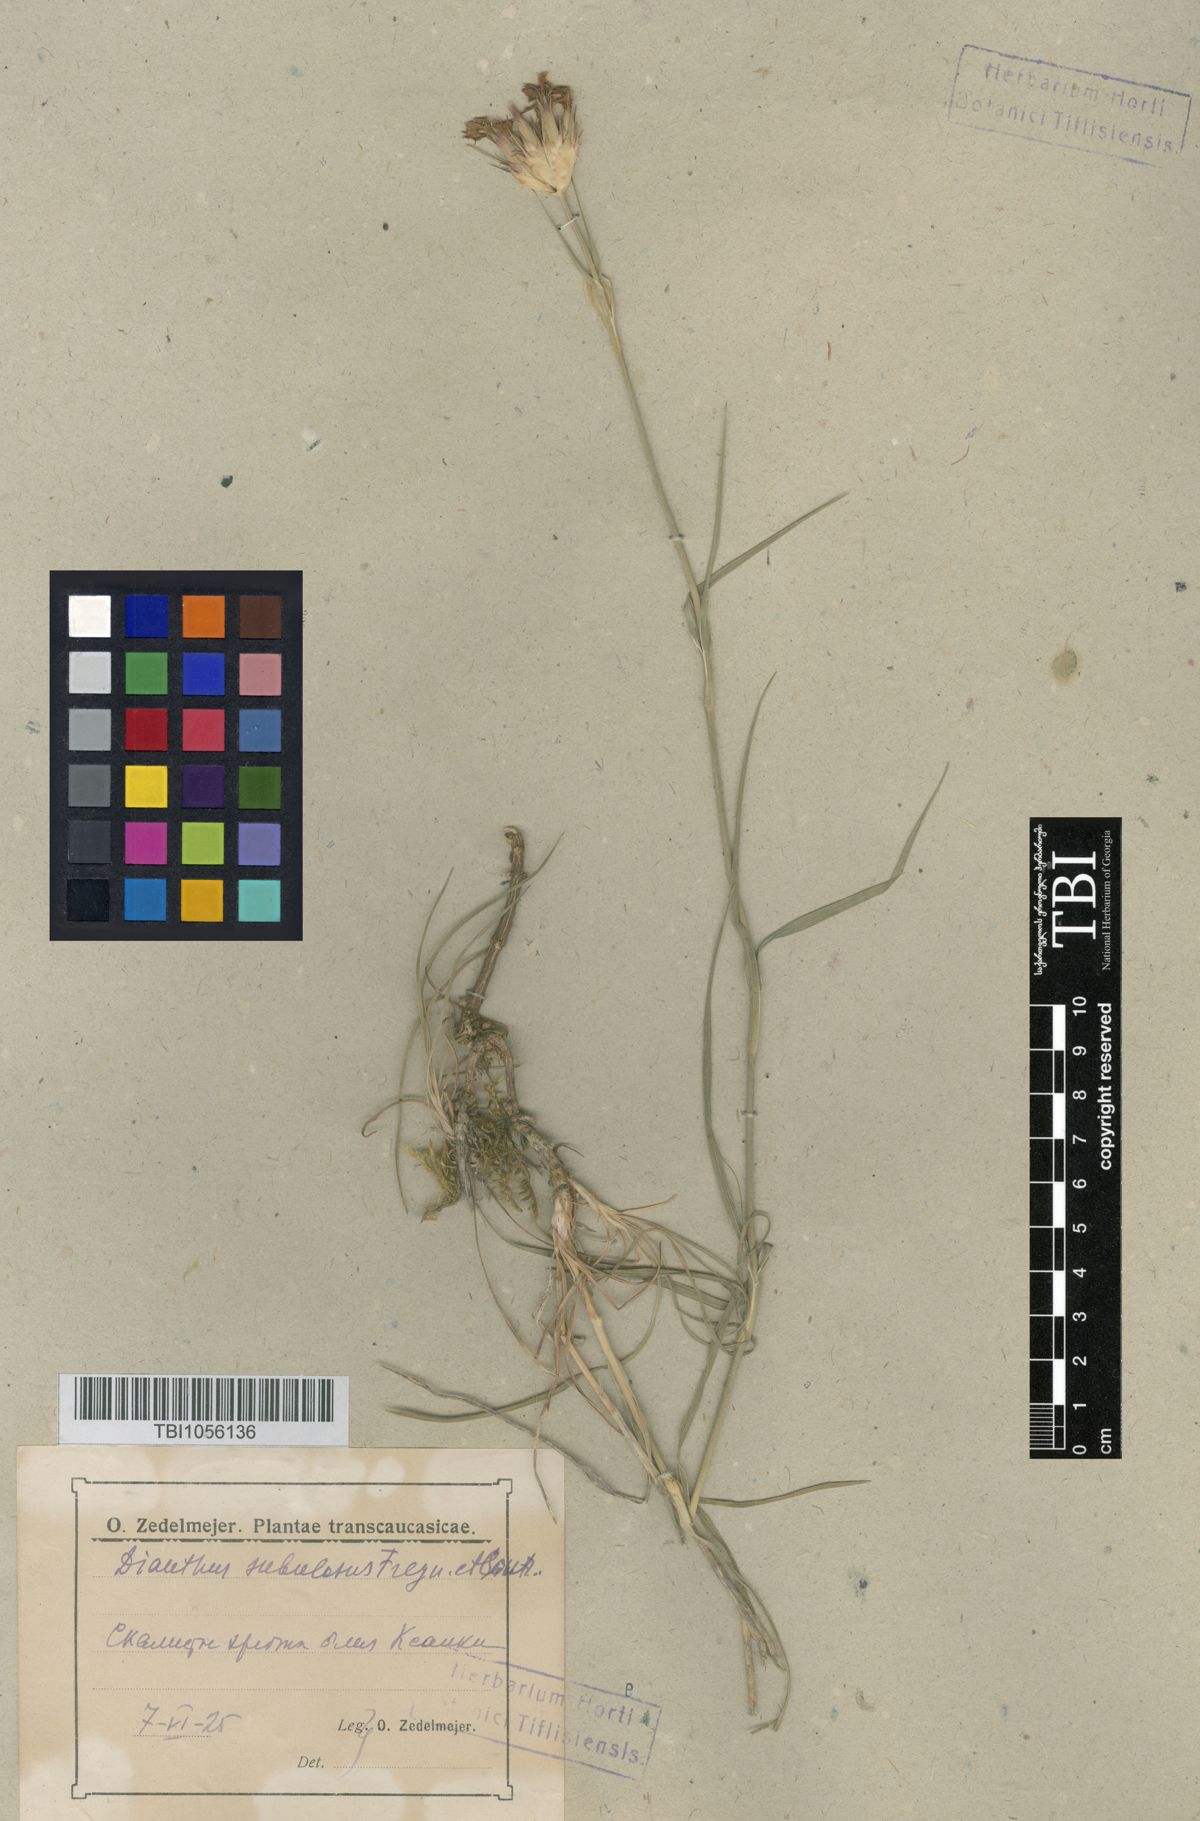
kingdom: Plantae
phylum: Tracheophyta
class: Magnoliopsida
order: Caryophyllales
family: Caryophyllaceae
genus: Dianthus
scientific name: Dianthus subulosus
